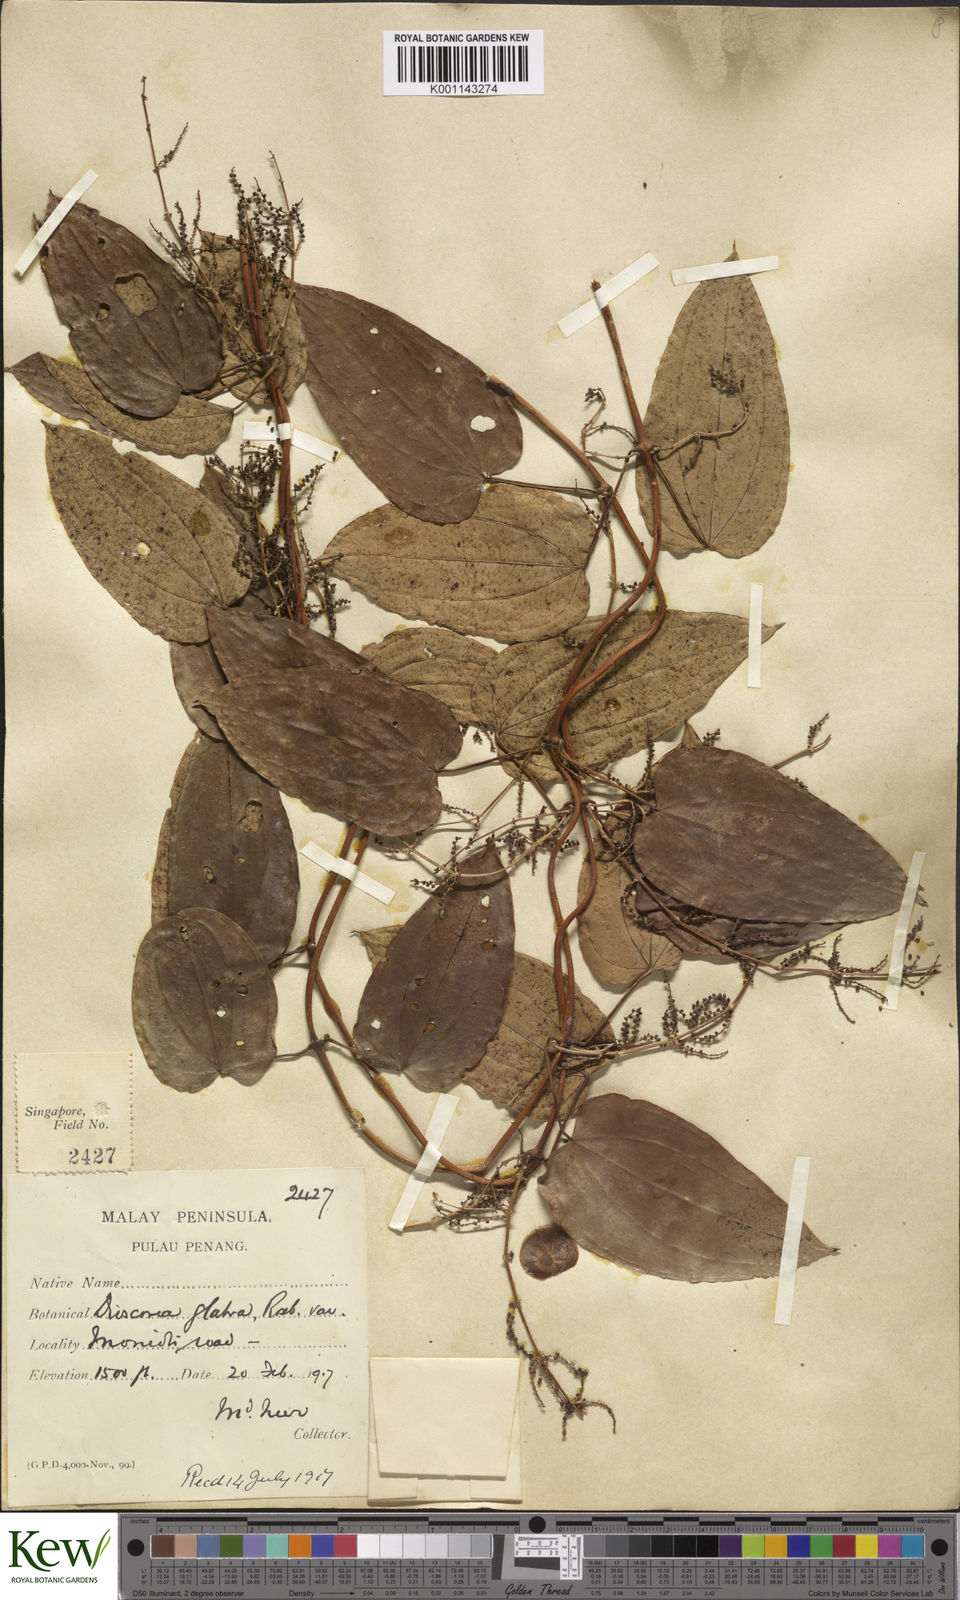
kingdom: Plantae
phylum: Tracheophyta
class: Liliopsida
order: Dioscoreales
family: Dioscoreaceae
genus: Dioscorea
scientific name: Dioscorea glabra
